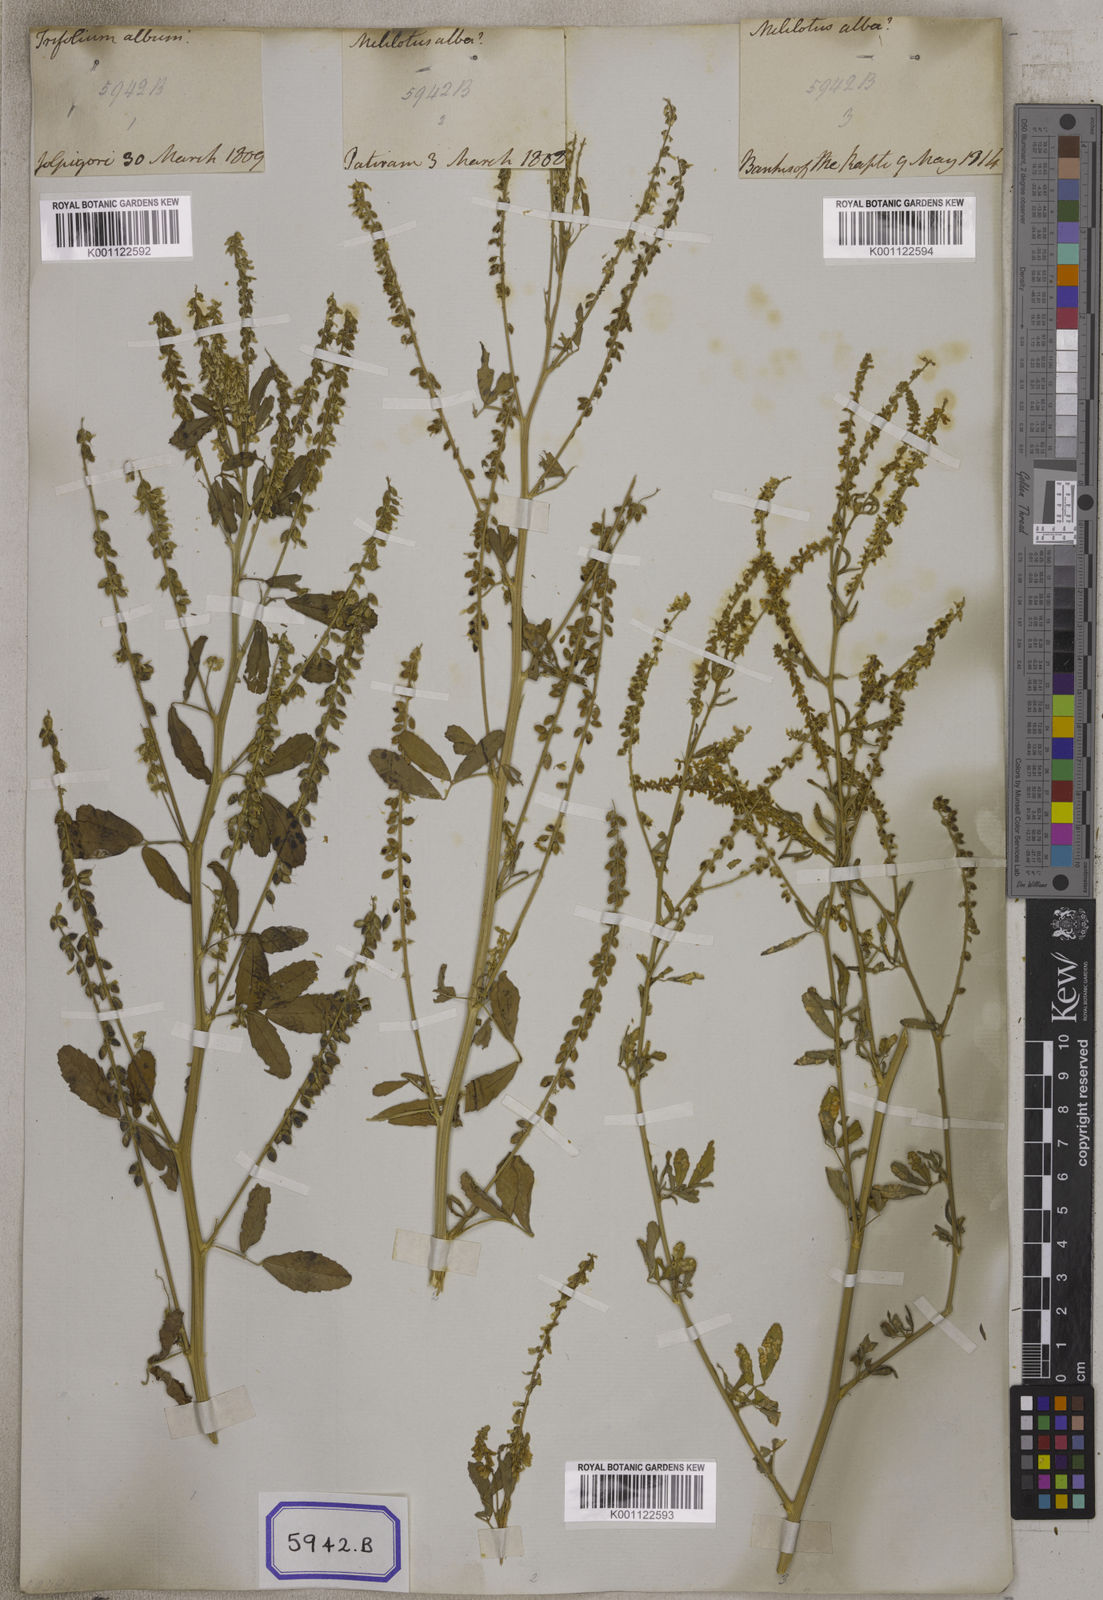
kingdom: Plantae
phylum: Tracheophyta
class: Magnoliopsida
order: Fabales
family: Fabaceae
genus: Melilotus
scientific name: Melilotus altissimus
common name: Tall melilot
